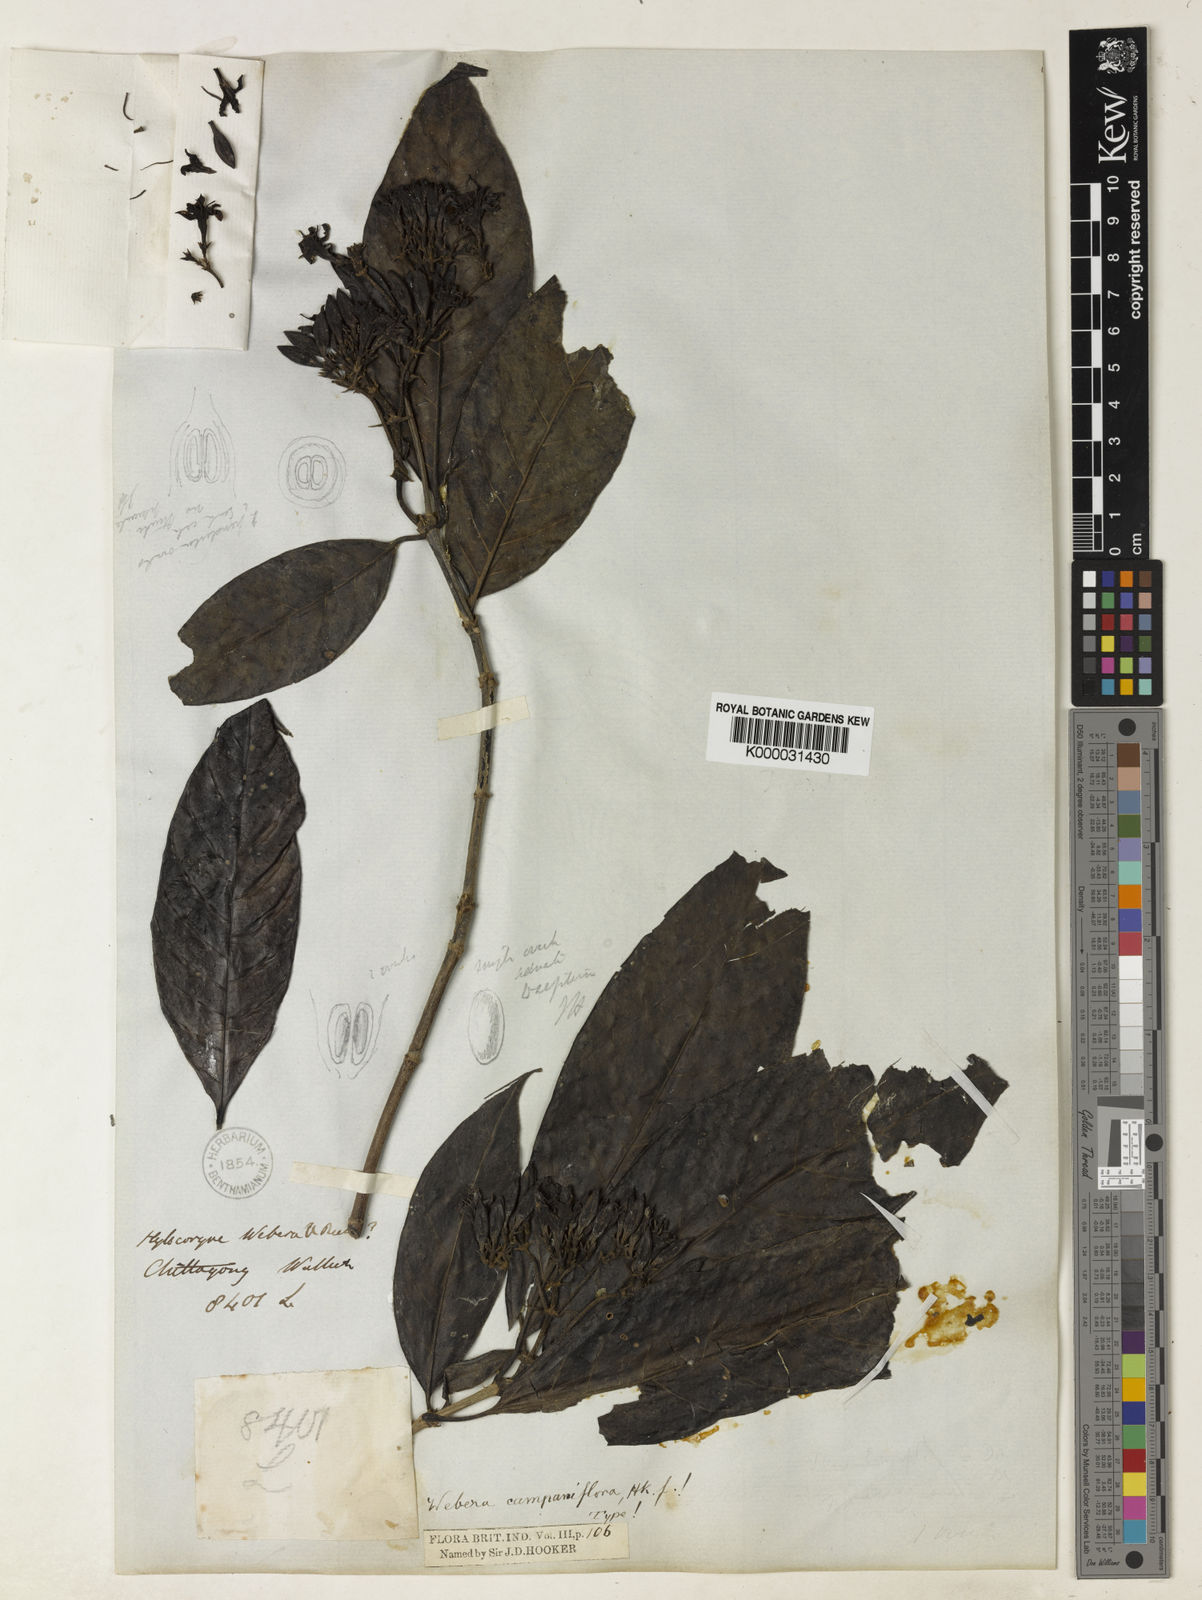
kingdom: Plantae
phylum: Tracheophyta
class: Magnoliopsida
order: Gentianales
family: Rubiaceae
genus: Tarenna
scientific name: Tarenna campaniflora
